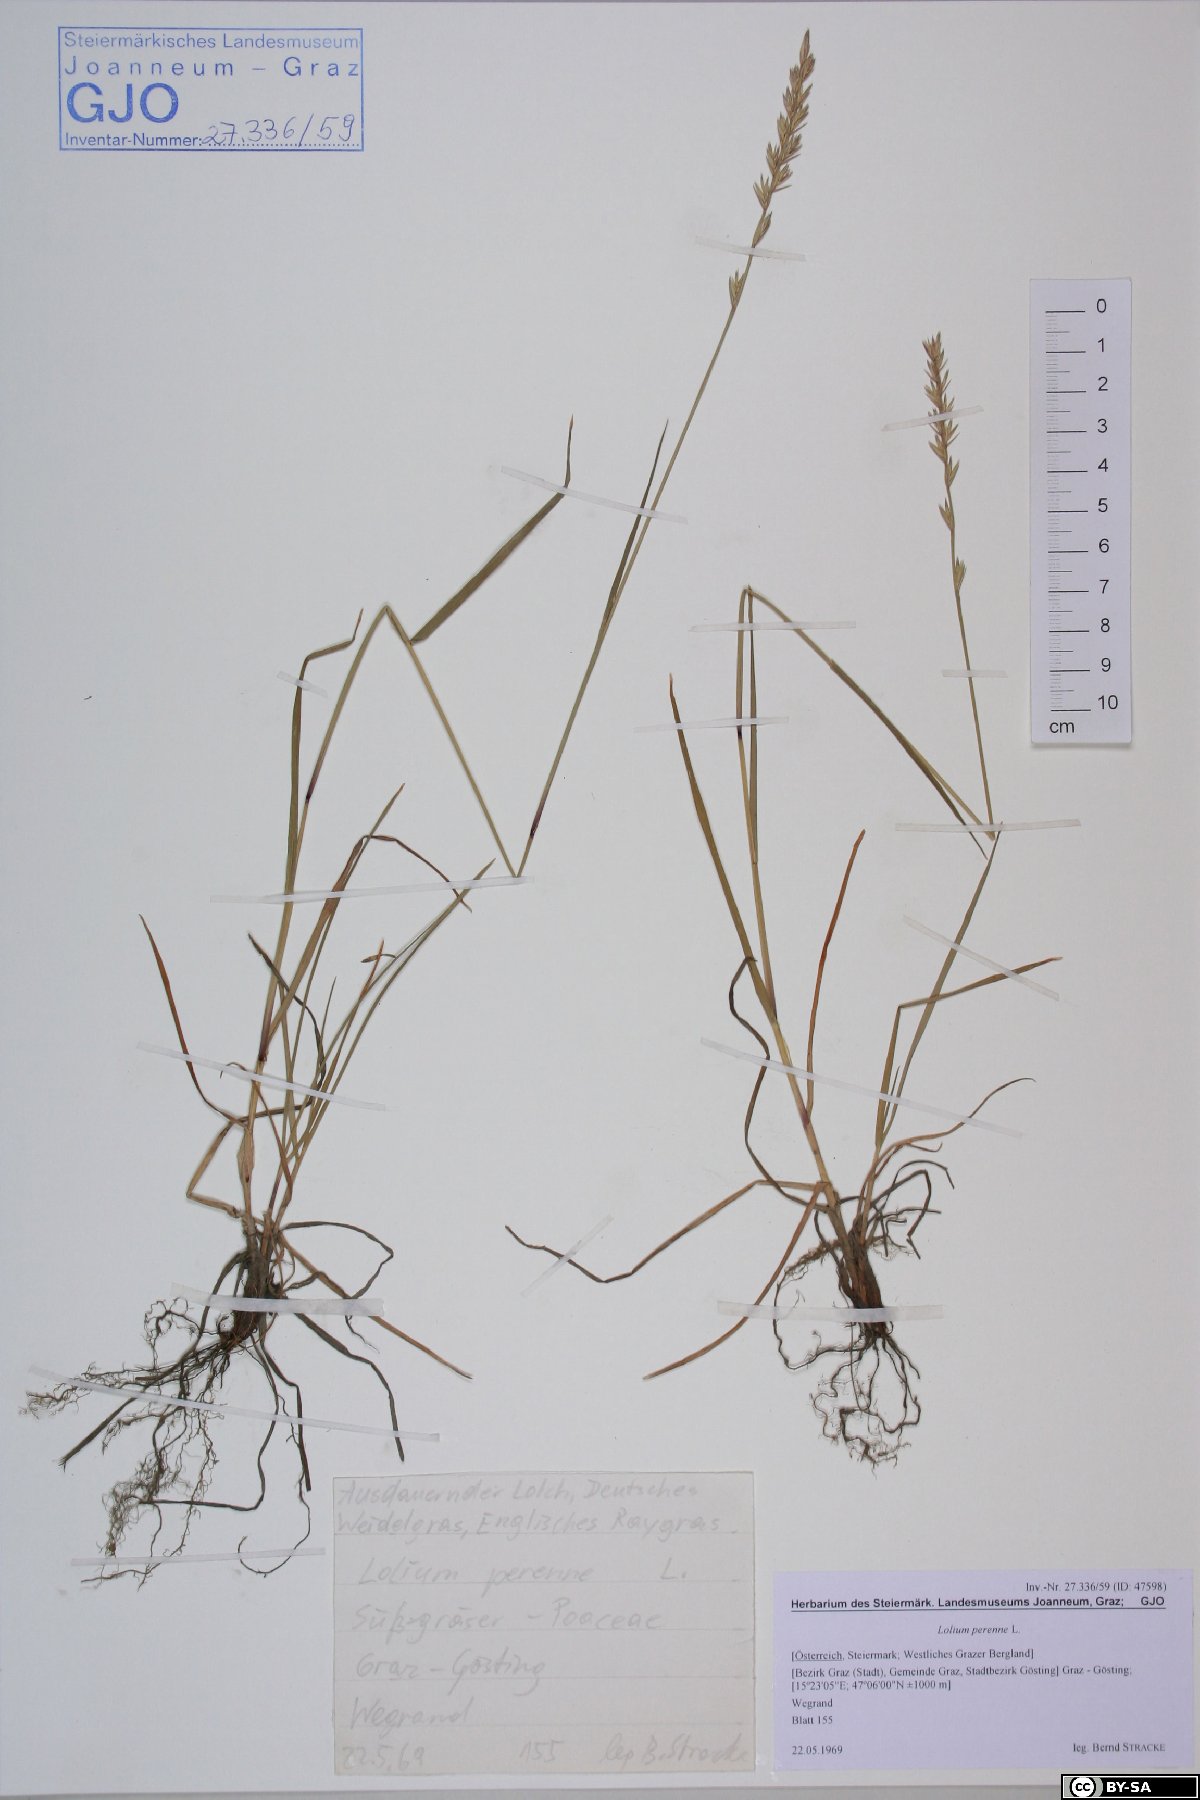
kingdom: Plantae
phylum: Tracheophyta
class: Liliopsida
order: Poales
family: Poaceae
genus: Lolium
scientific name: Lolium perenne
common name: Perennial ryegrass
